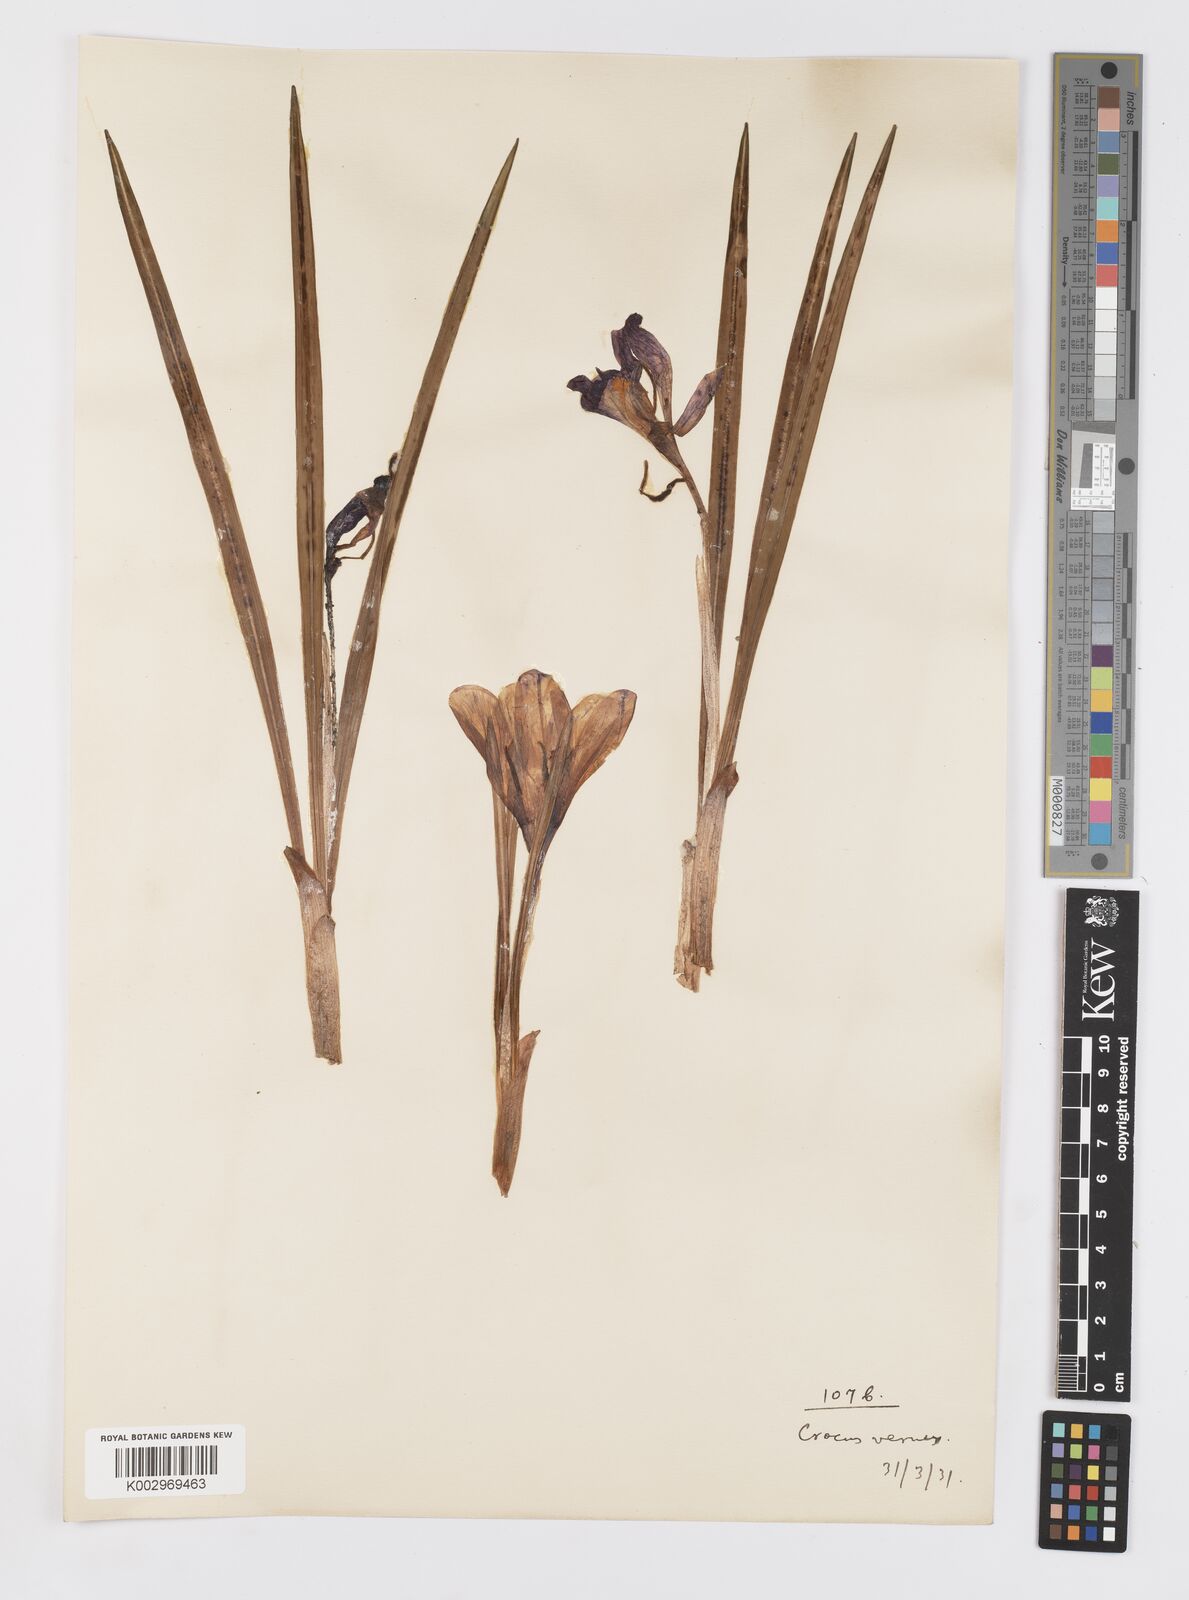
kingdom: Plantae
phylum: Tracheophyta
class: Liliopsida
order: Asparagales
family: Iridaceae
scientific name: Iridaceae
